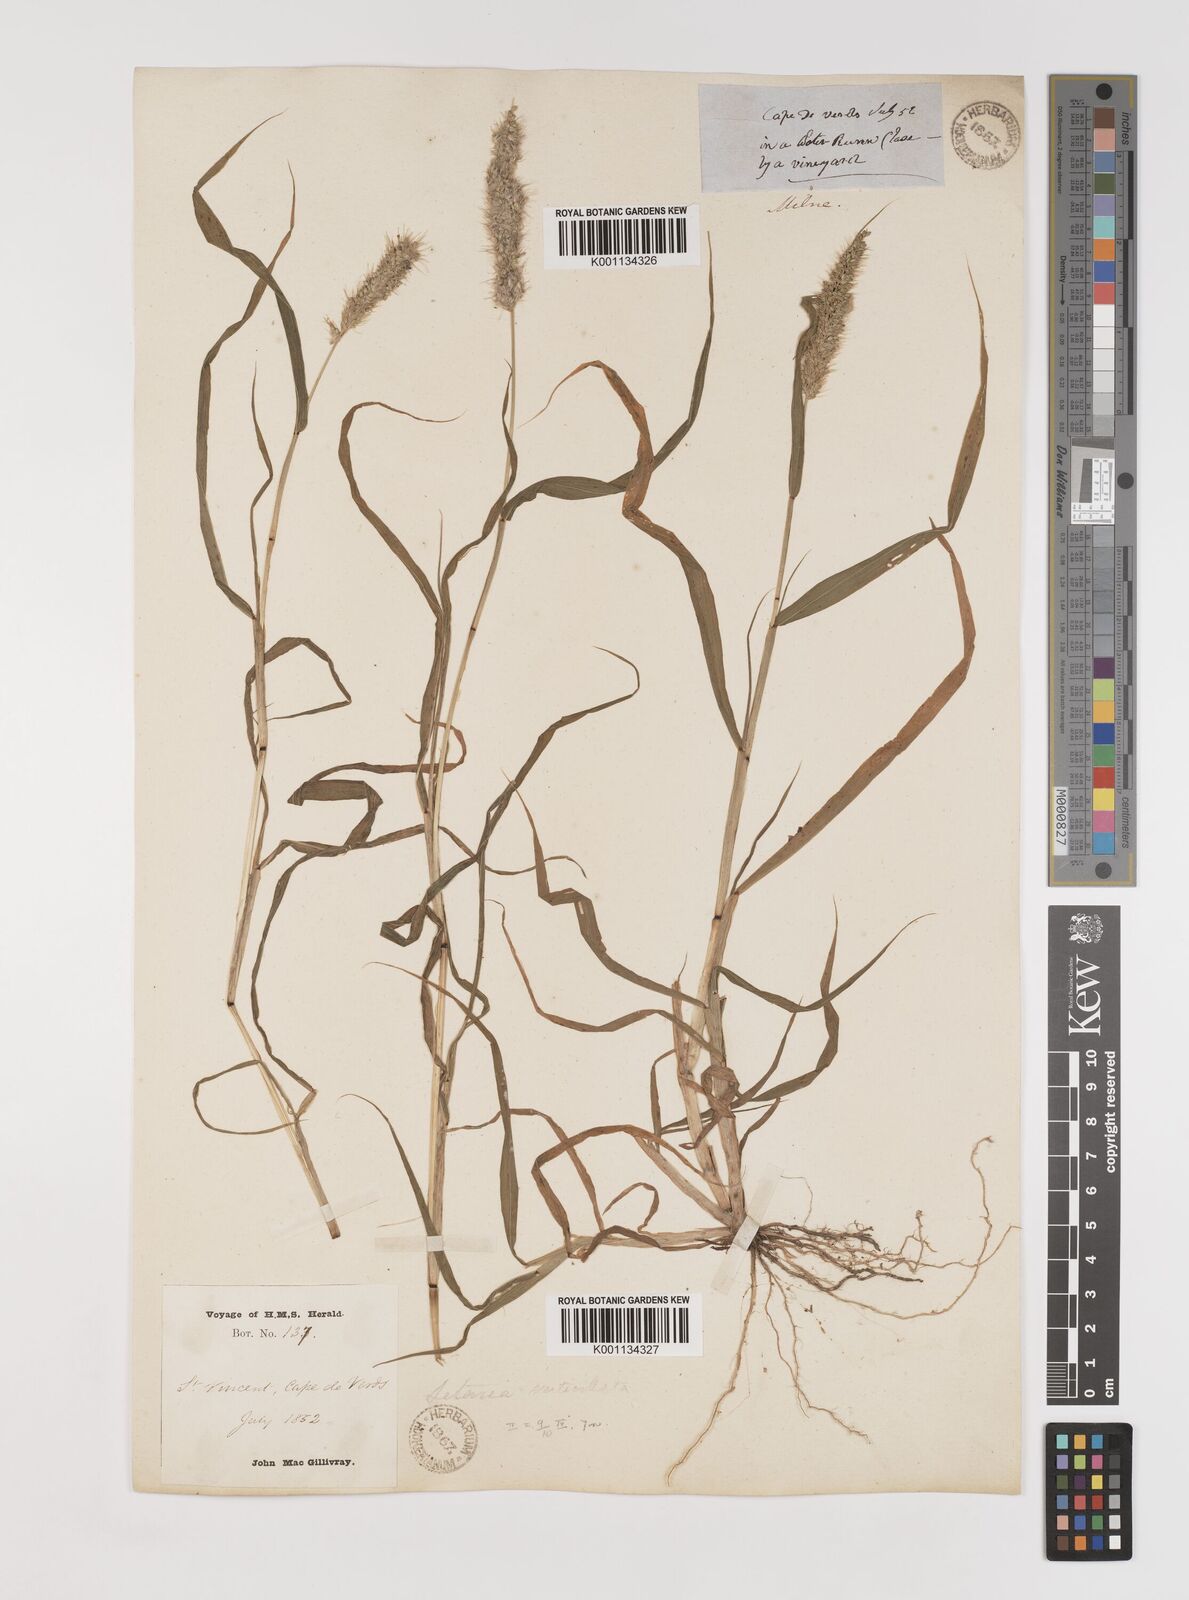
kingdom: Plantae
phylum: Tracheophyta
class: Liliopsida
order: Poales
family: Poaceae
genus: Setaria
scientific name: Setaria verticillata
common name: Hooked bristlegrass
